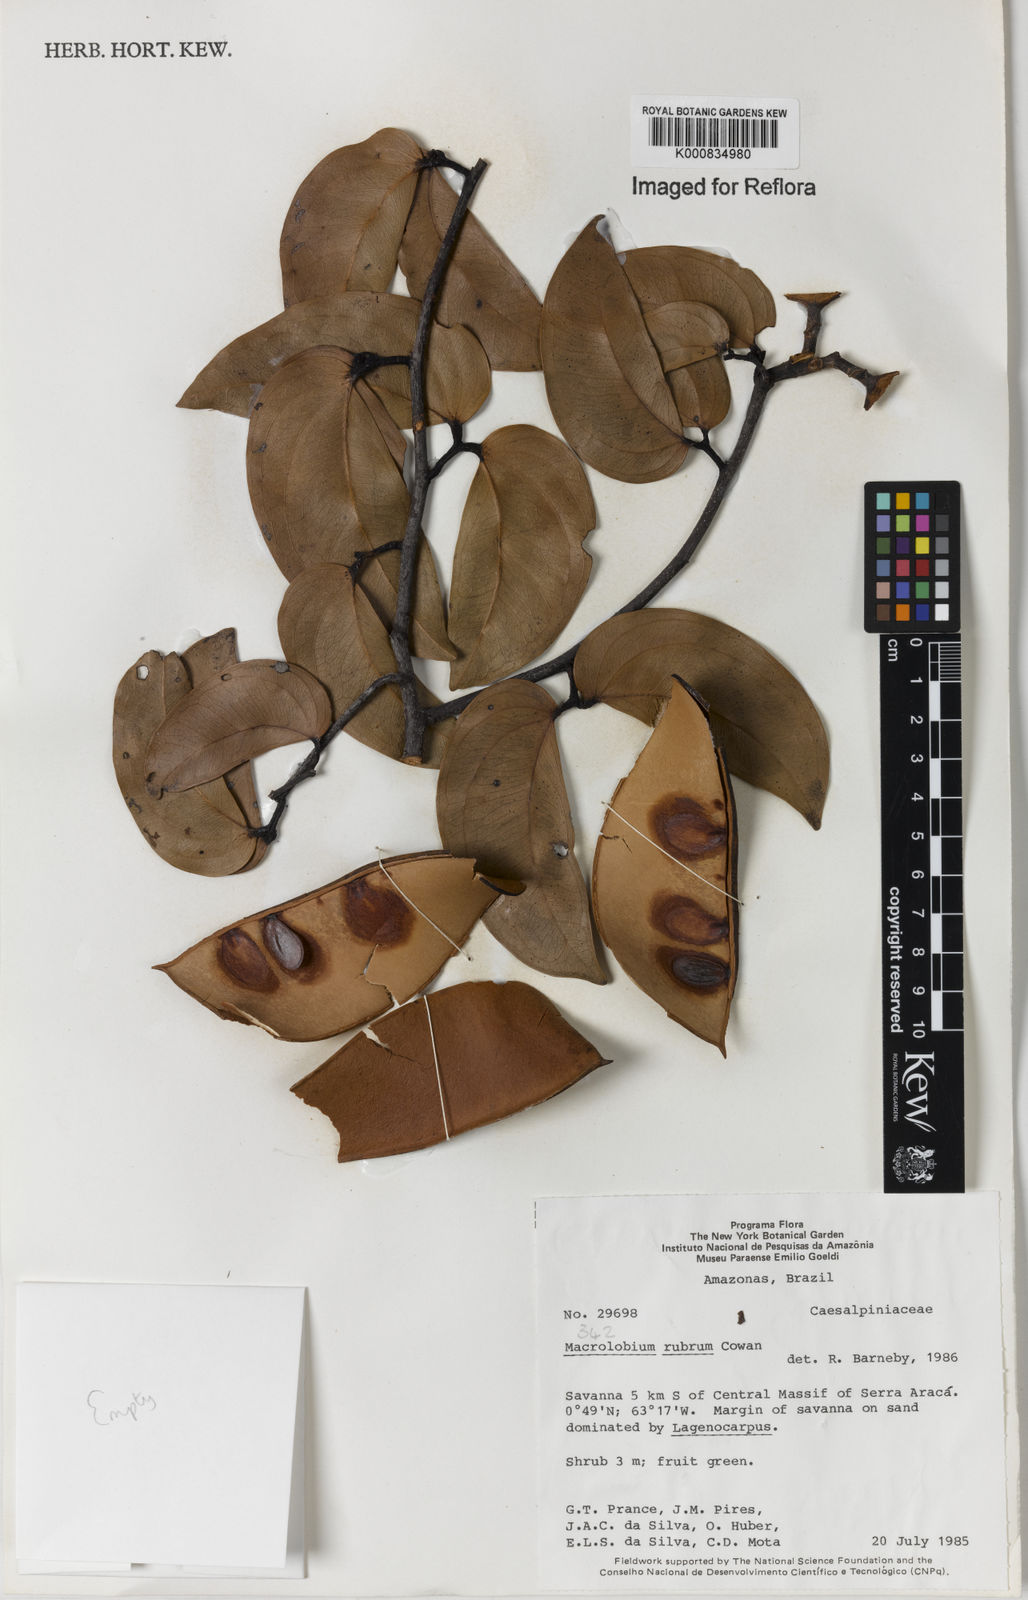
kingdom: Plantae
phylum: Tracheophyta
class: Magnoliopsida
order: Fabales
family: Fabaceae
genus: Macrolobium
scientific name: Macrolobium rubrum
